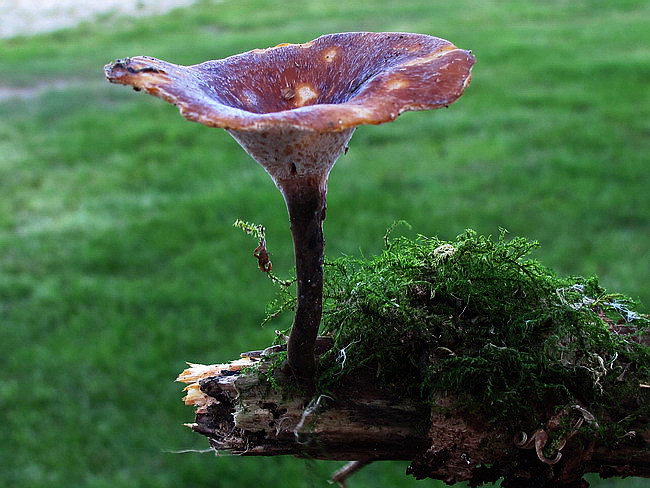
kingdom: Fungi
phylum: Basidiomycota
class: Agaricomycetes
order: Polyporales
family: Polyporaceae
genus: Picipes
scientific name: Picipes tubaeformis
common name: trompet-stilkporesvamp
